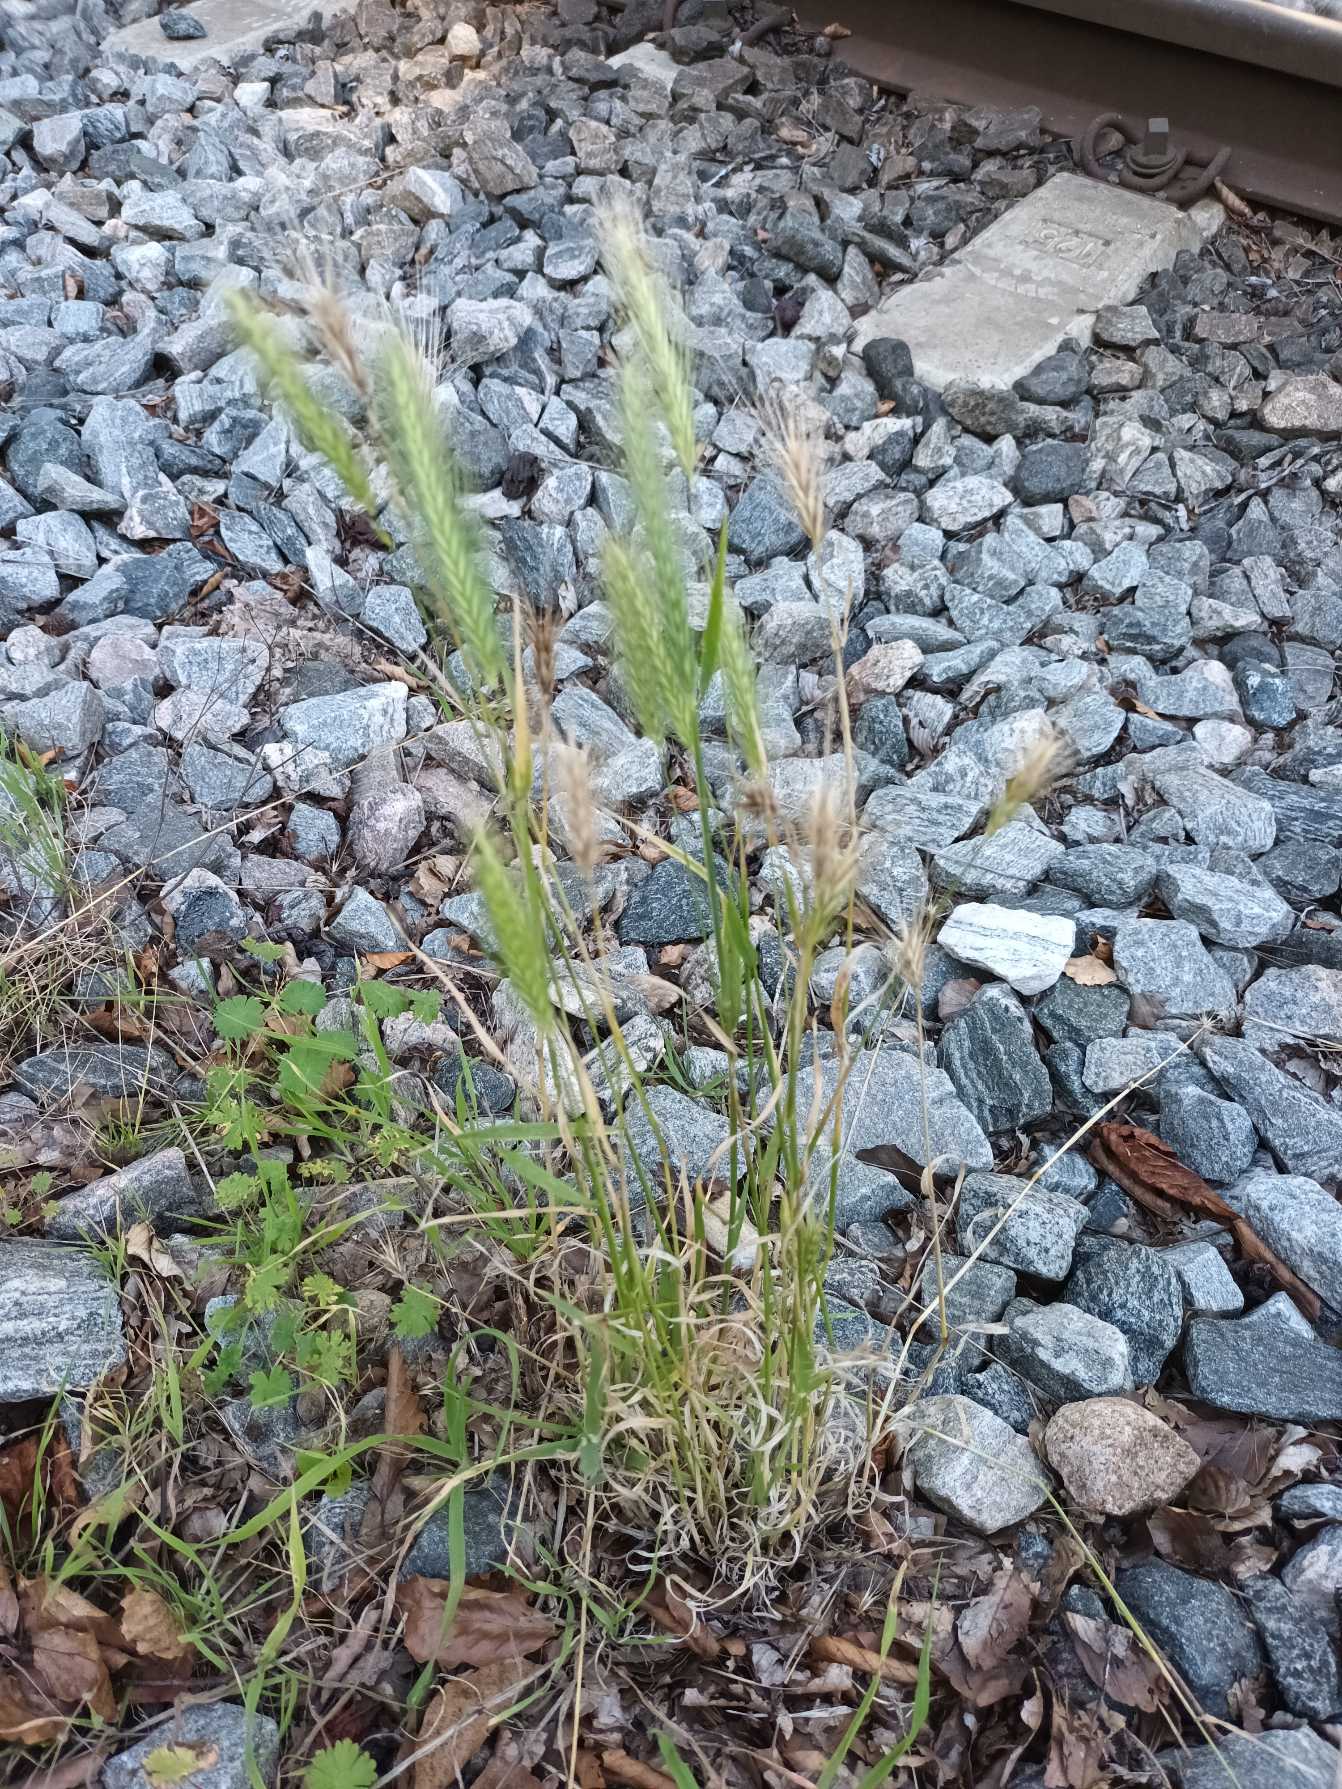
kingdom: Plantae
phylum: Tracheophyta
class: Liliopsida
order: Poales
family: Poaceae
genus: Hordeum
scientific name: Hordeum murinum
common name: Gold byg
